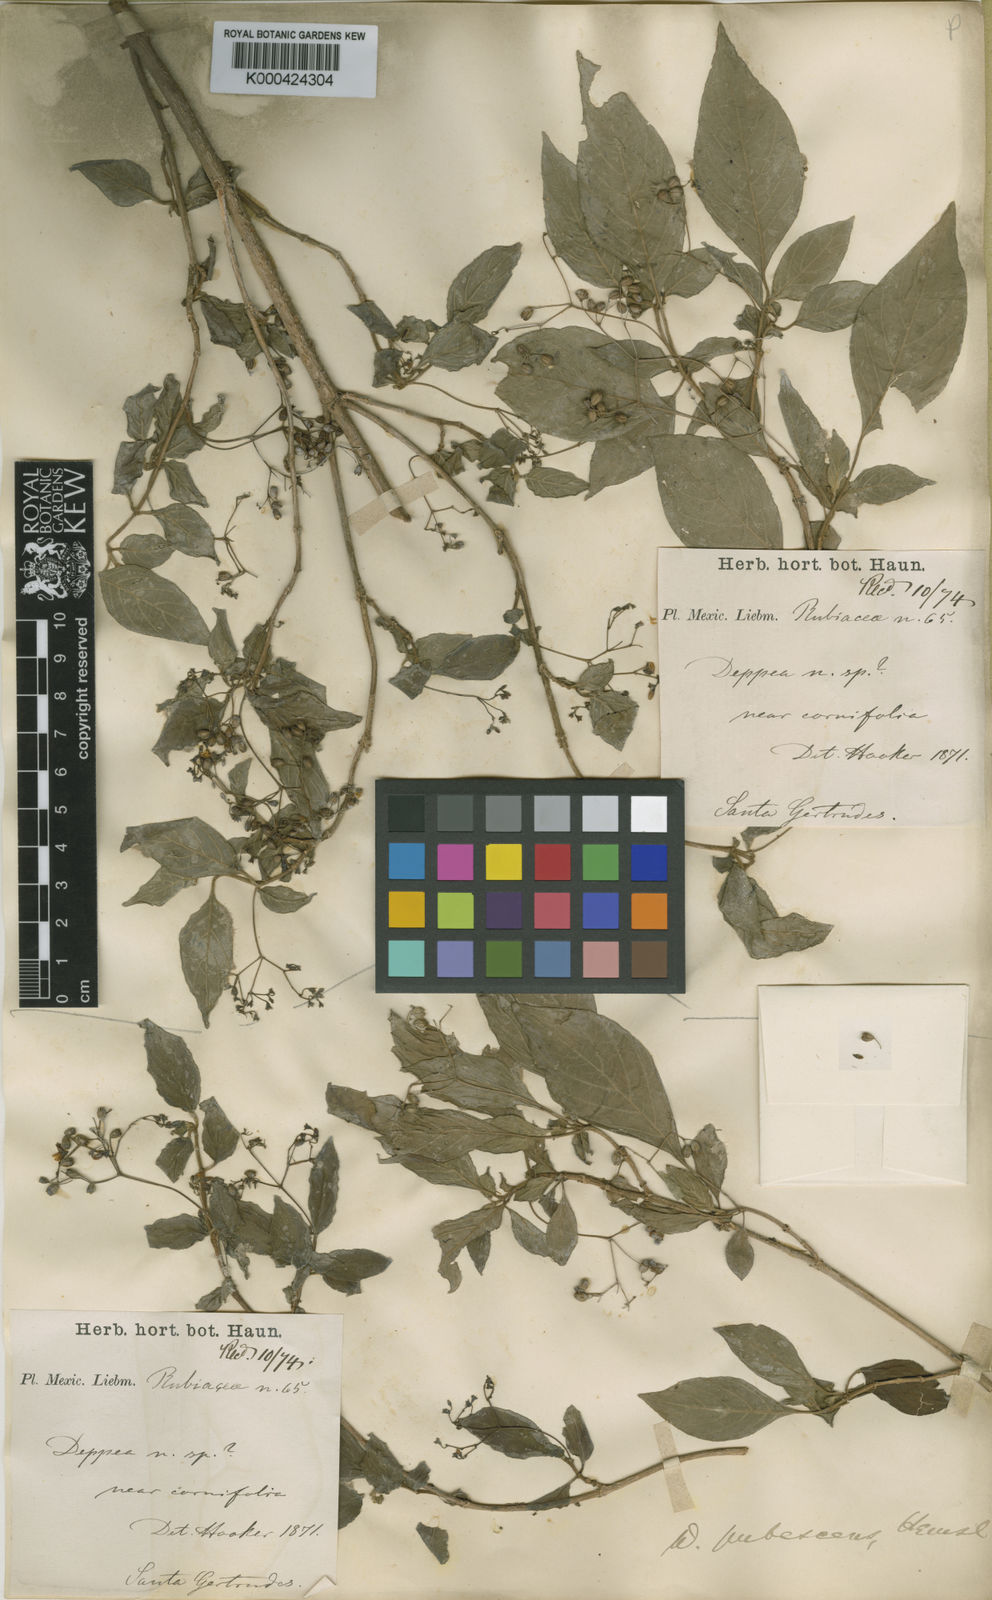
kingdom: Plantae
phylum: Tracheophyta
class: Magnoliopsida
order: Gentianales
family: Rubiaceae
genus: Deppea
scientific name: Deppea pubescens
